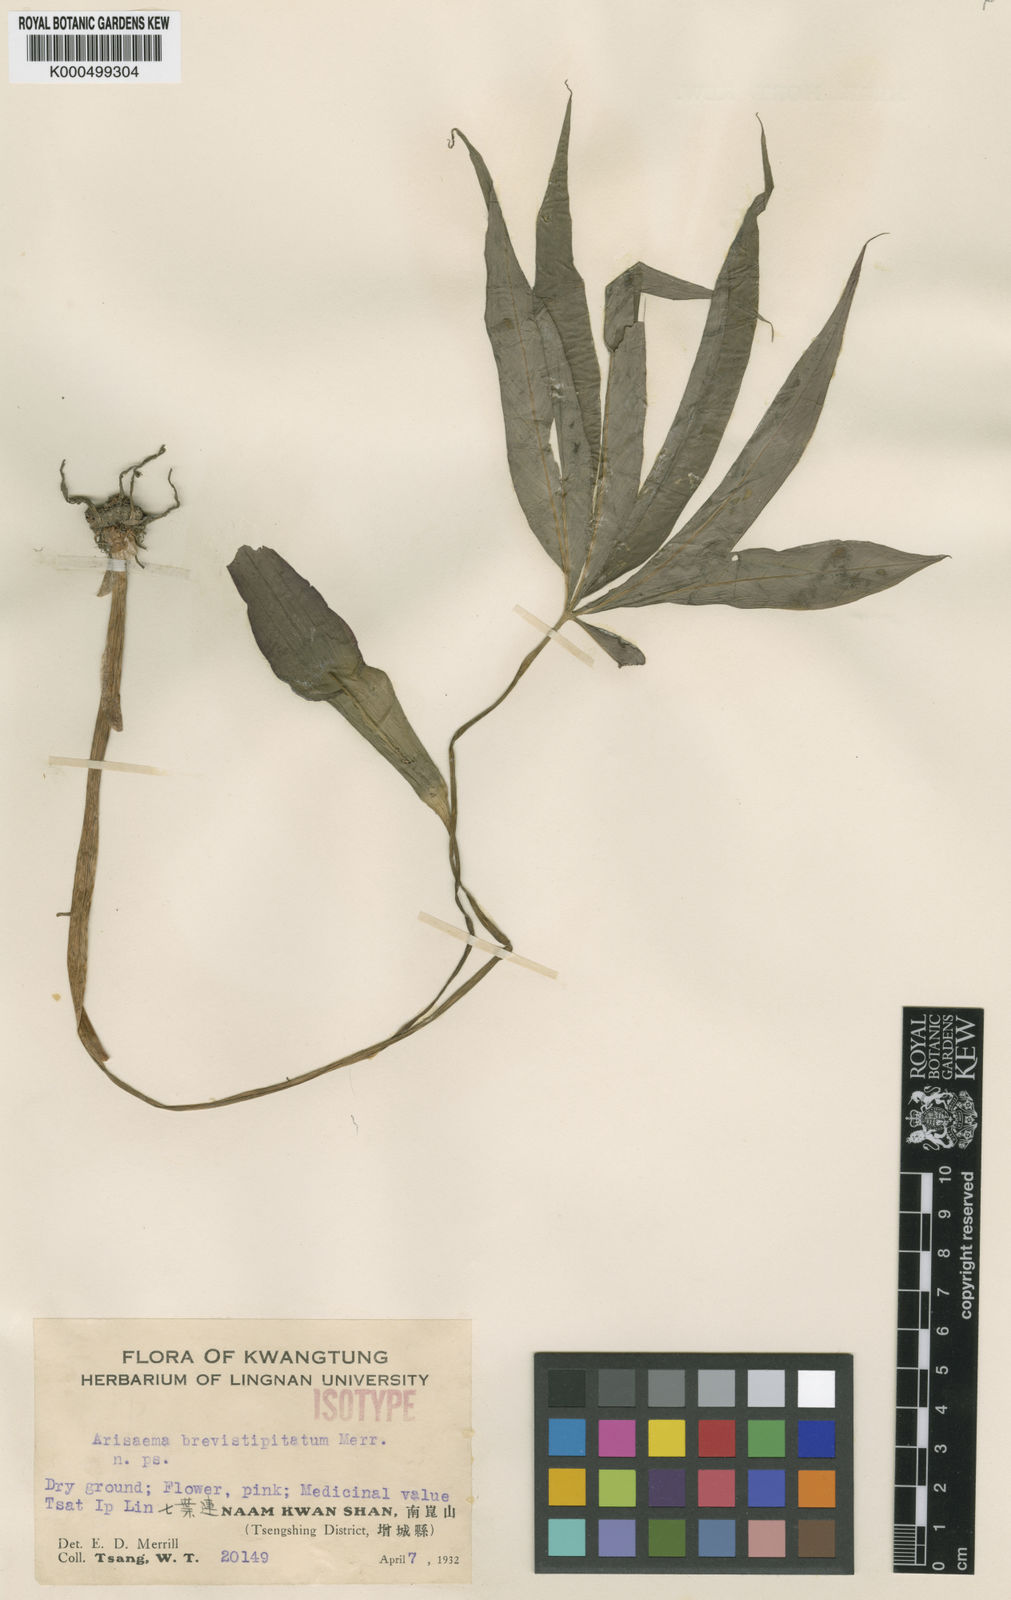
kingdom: Plantae
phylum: Tracheophyta
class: Liliopsida
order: Alismatales
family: Araceae
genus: Arisaema
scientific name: Arisaema cordatum
